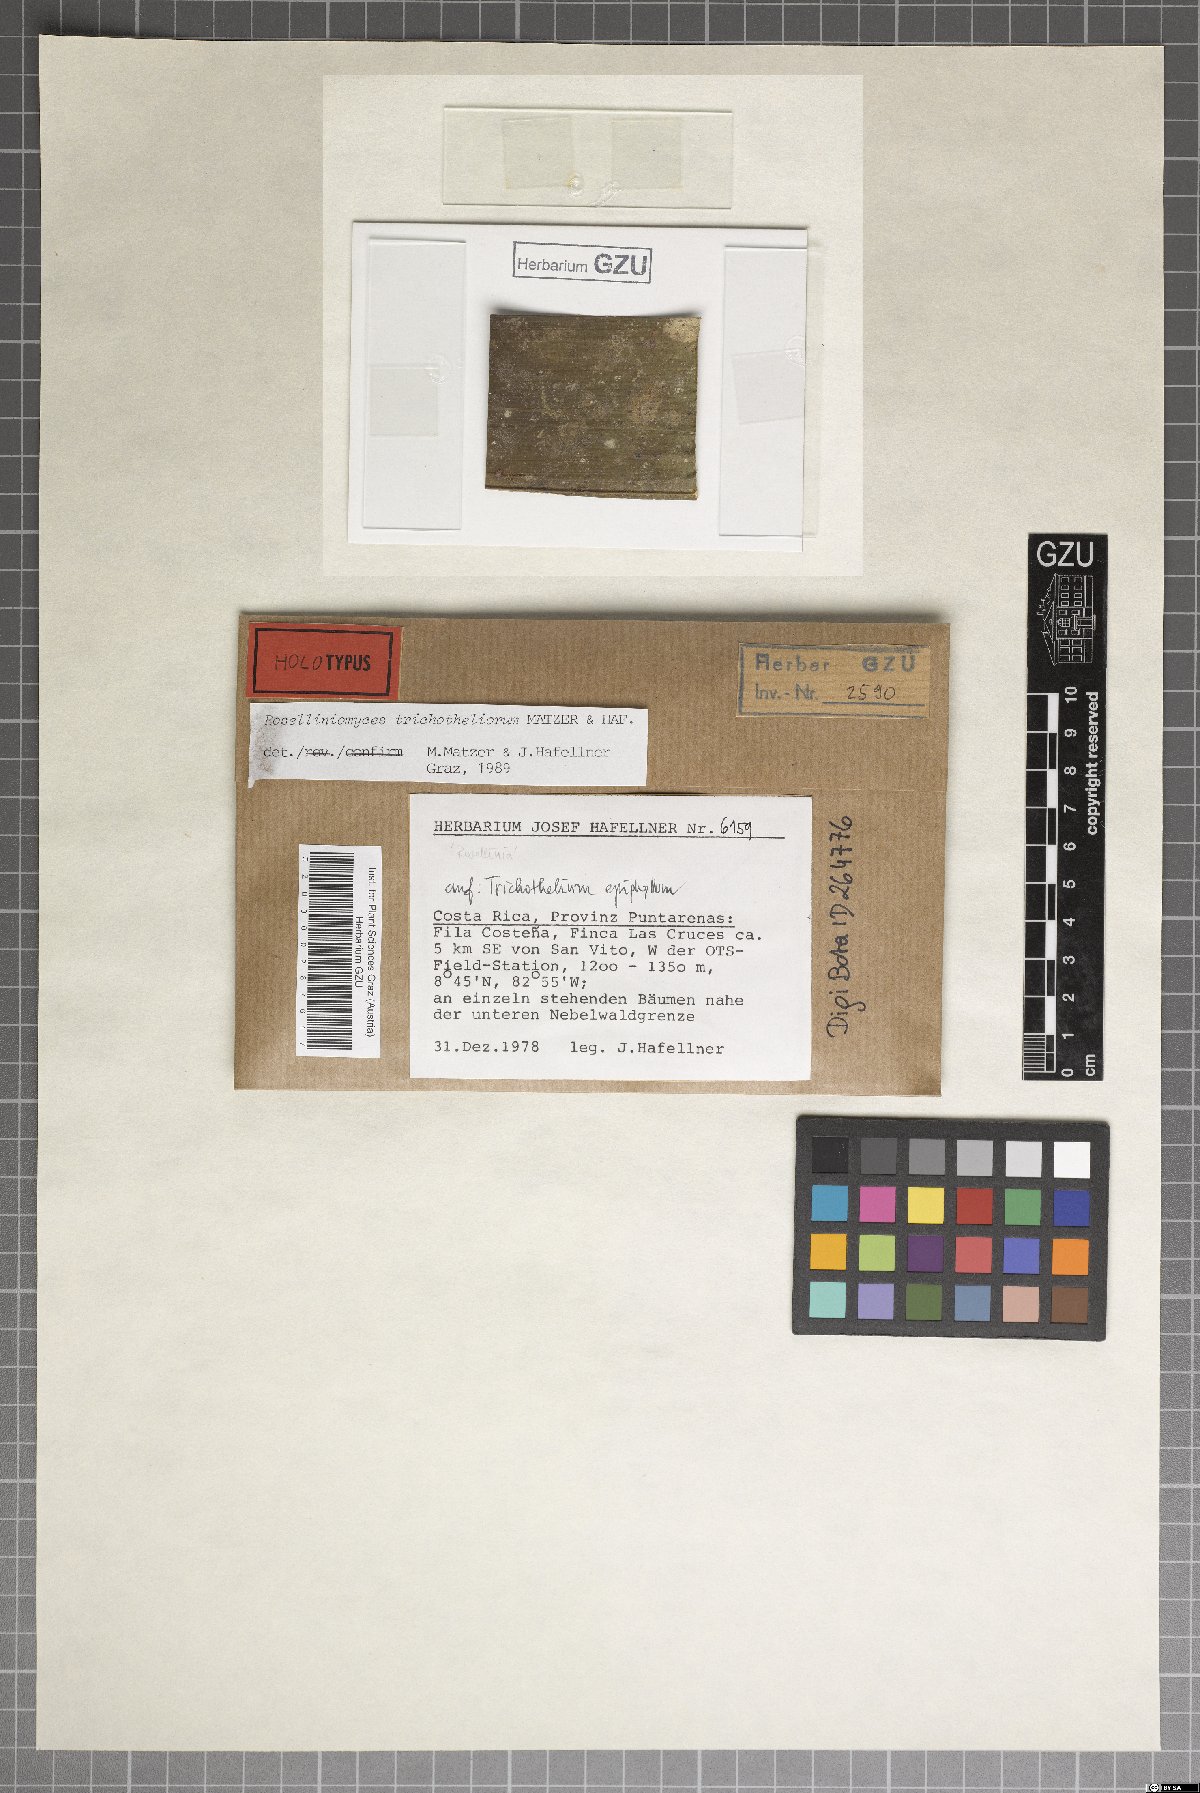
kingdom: Fungi
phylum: Ascomycota
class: Sordariomycetes
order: Sordariales
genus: Roselliniomyces
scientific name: Roselliniomyces trichotheliorum
